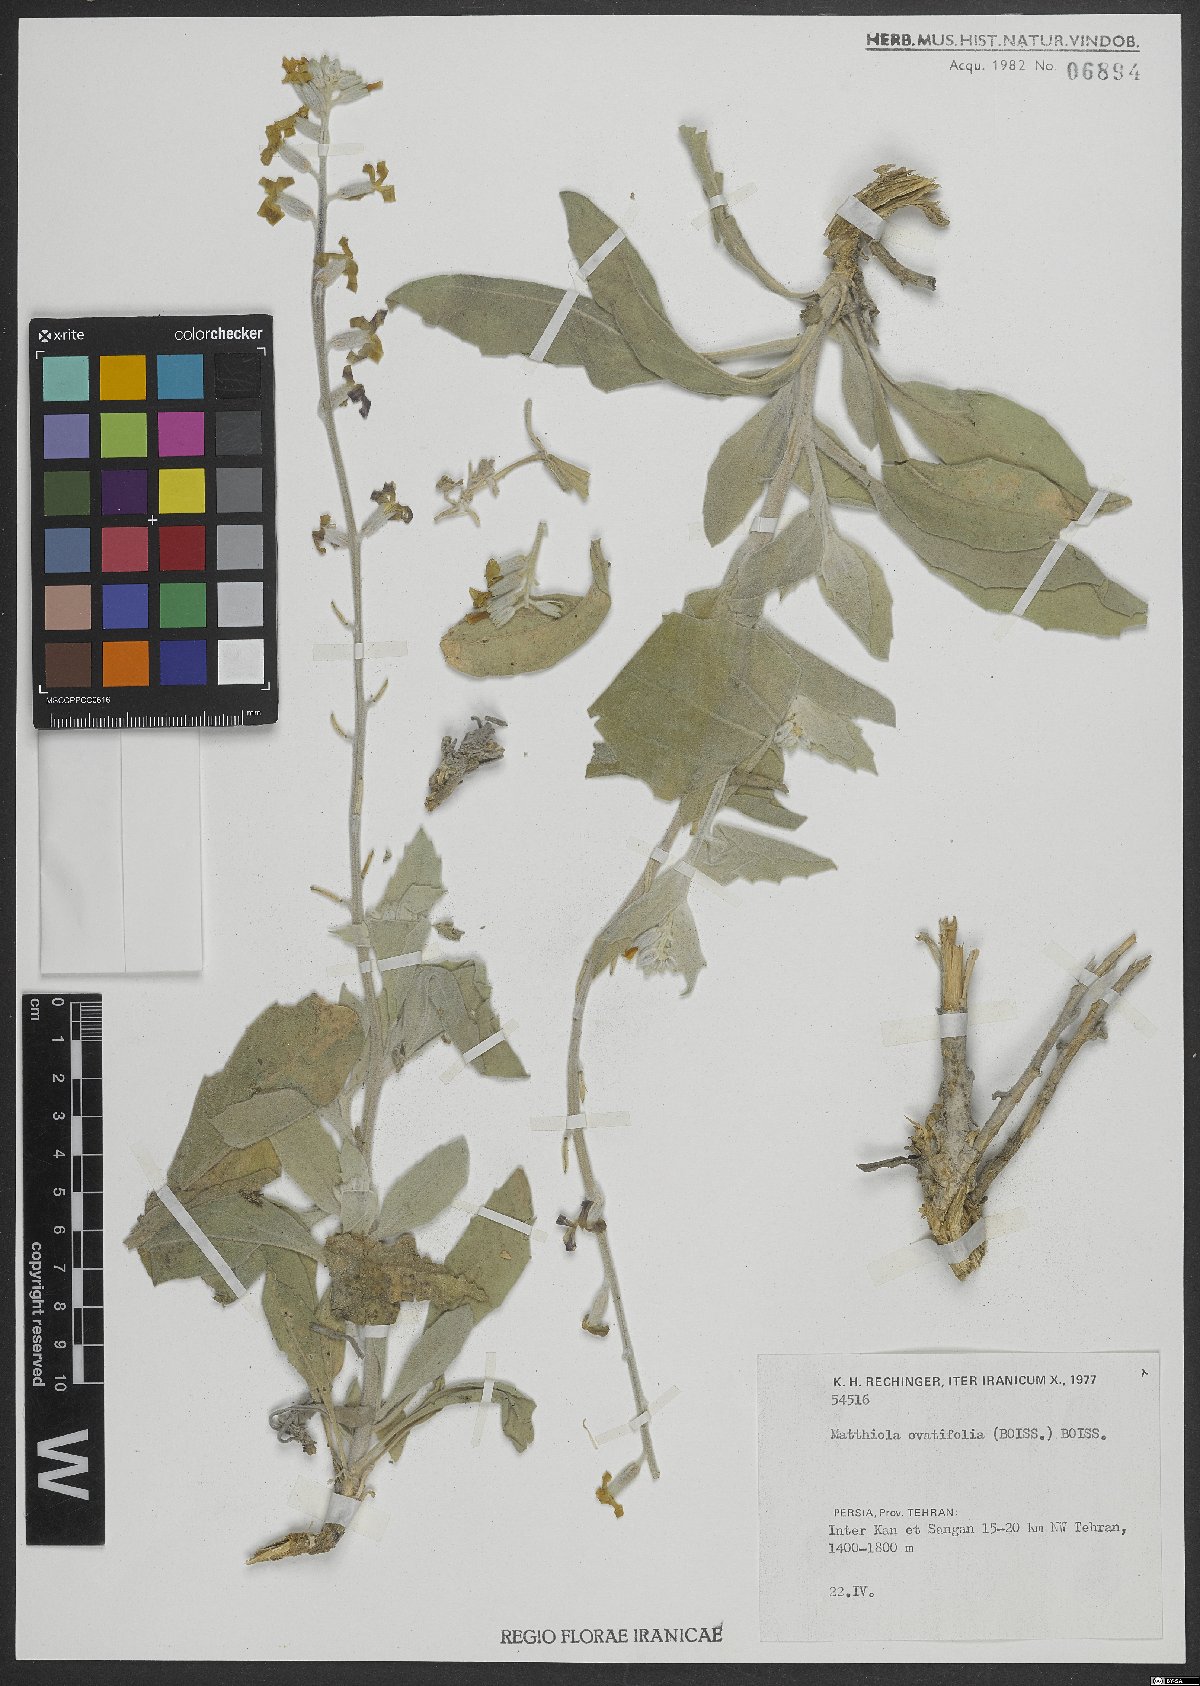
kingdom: Plantae
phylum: Tracheophyta
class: Magnoliopsida
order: Brassicales
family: Brassicaceae
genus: Matthiola
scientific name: Matthiola ovatifolia
